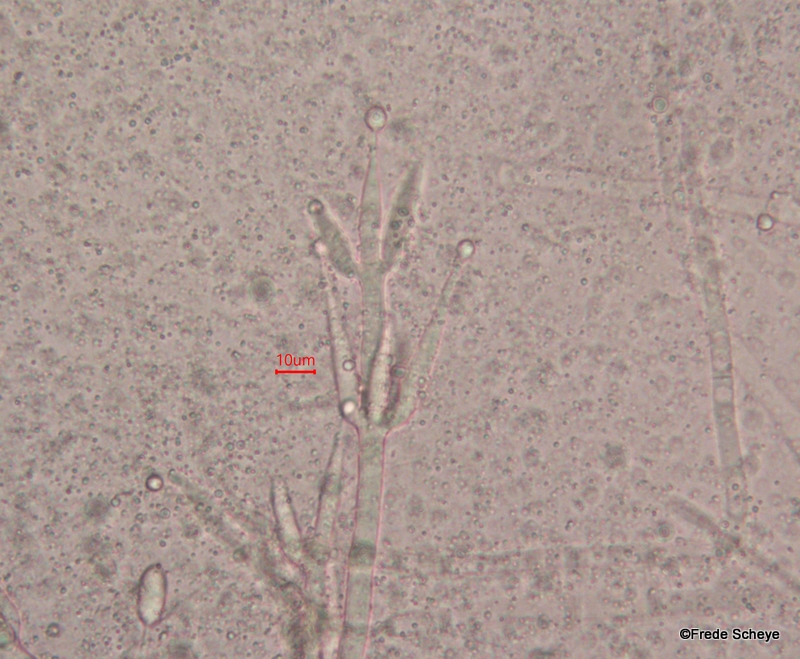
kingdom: Fungi
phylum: Basidiomycota
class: Agaricomycetes
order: Agaricales
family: Tricholomataceae
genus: Clitocybe
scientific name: Clitocybe metachroa
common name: grå tragthat
